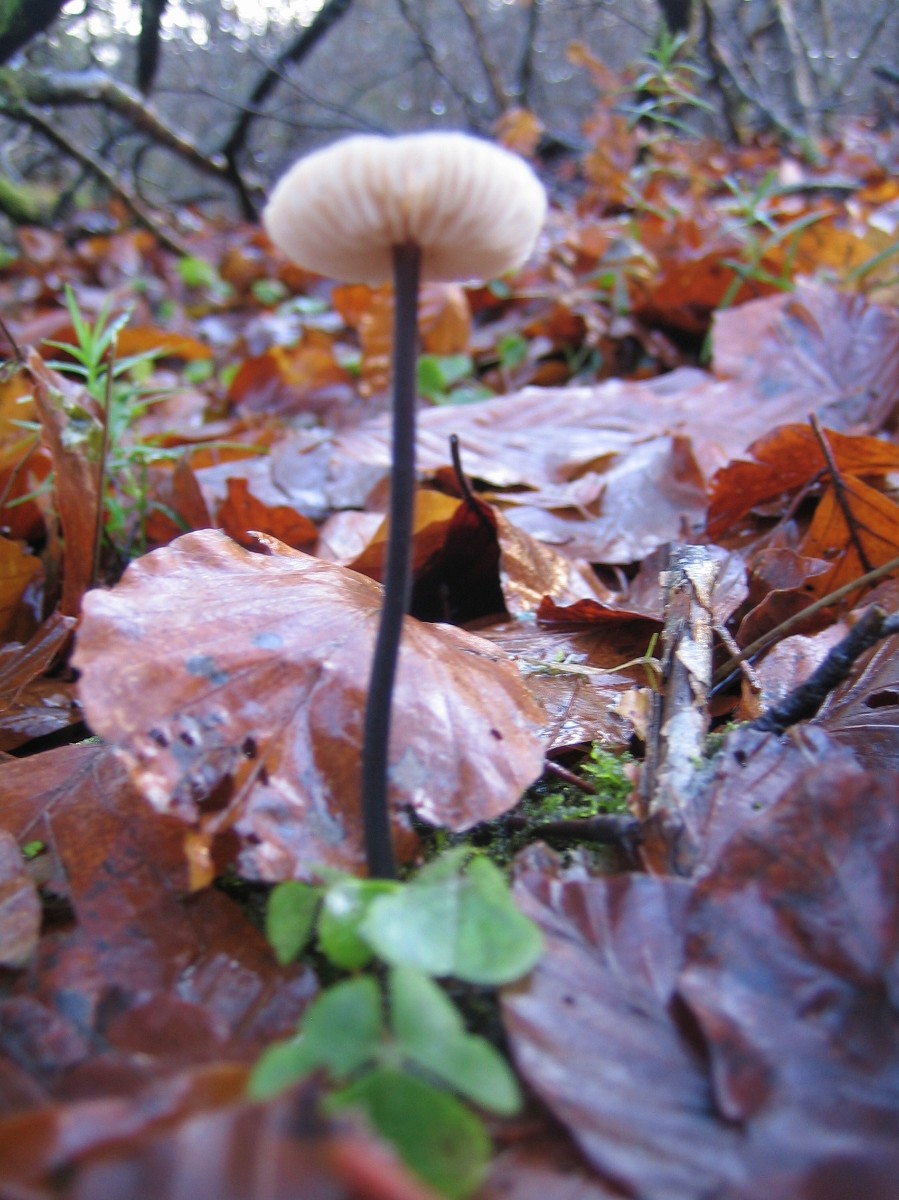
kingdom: Fungi
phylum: Basidiomycota
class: Agaricomycetes
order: Agaricales
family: Omphalotaceae
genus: Mycetinis
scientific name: Mycetinis alliaceus
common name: stor løghat
